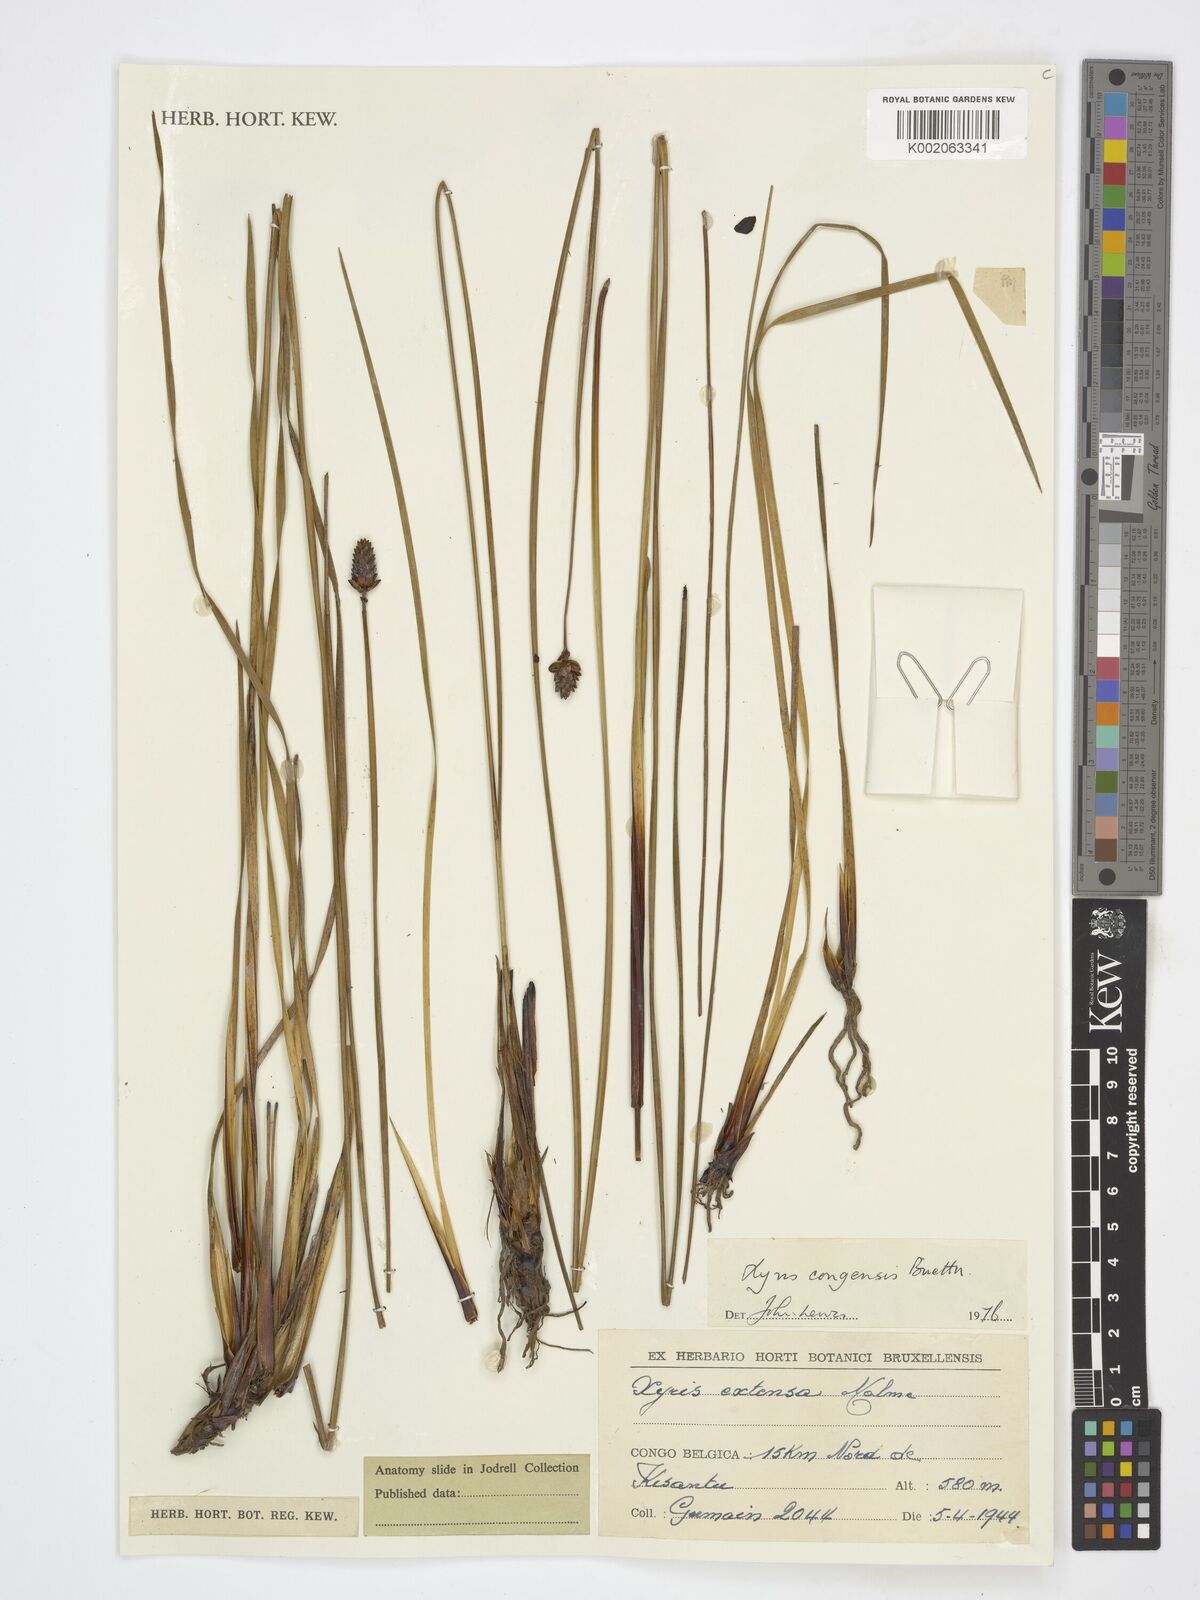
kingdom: Plantae
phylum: Tracheophyta
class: Liliopsida
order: Poales
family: Xyridaceae
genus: Xyris
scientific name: Xyris congensis
